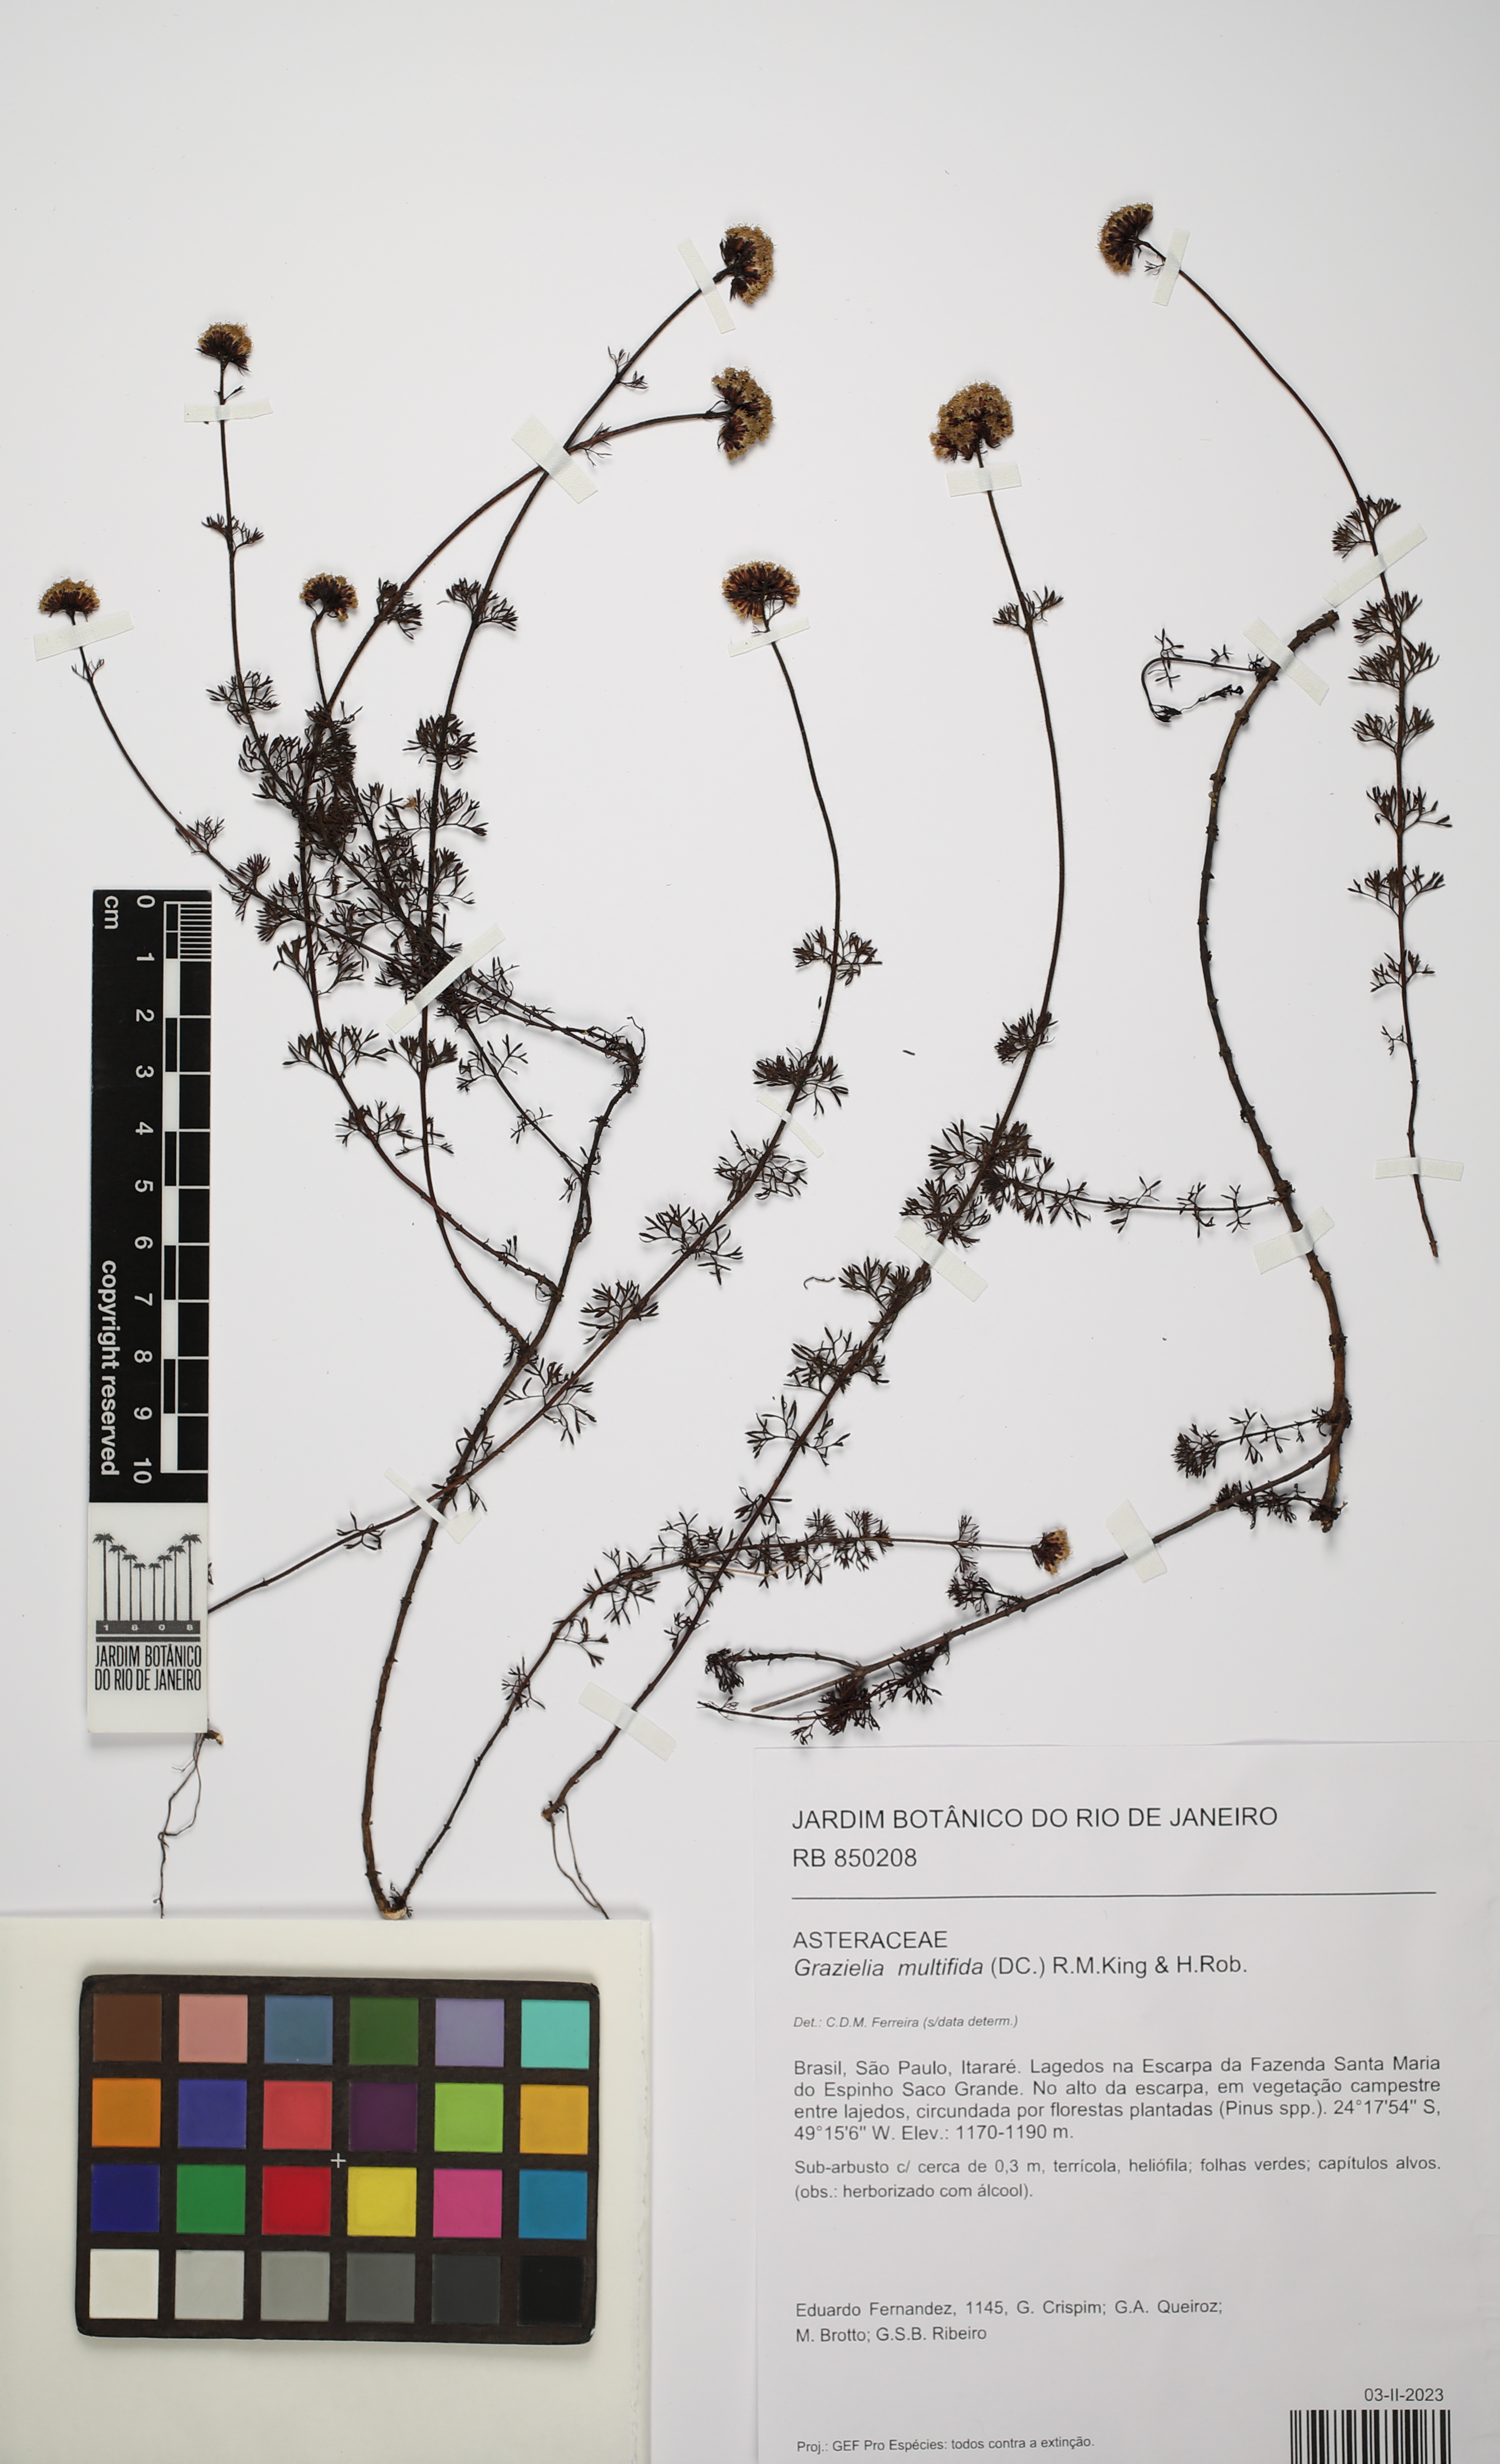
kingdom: Plantae
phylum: Tracheophyta
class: Magnoliopsida
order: Asterales
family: Asteraceae
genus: Grazielia
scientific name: Grazielia multifida
